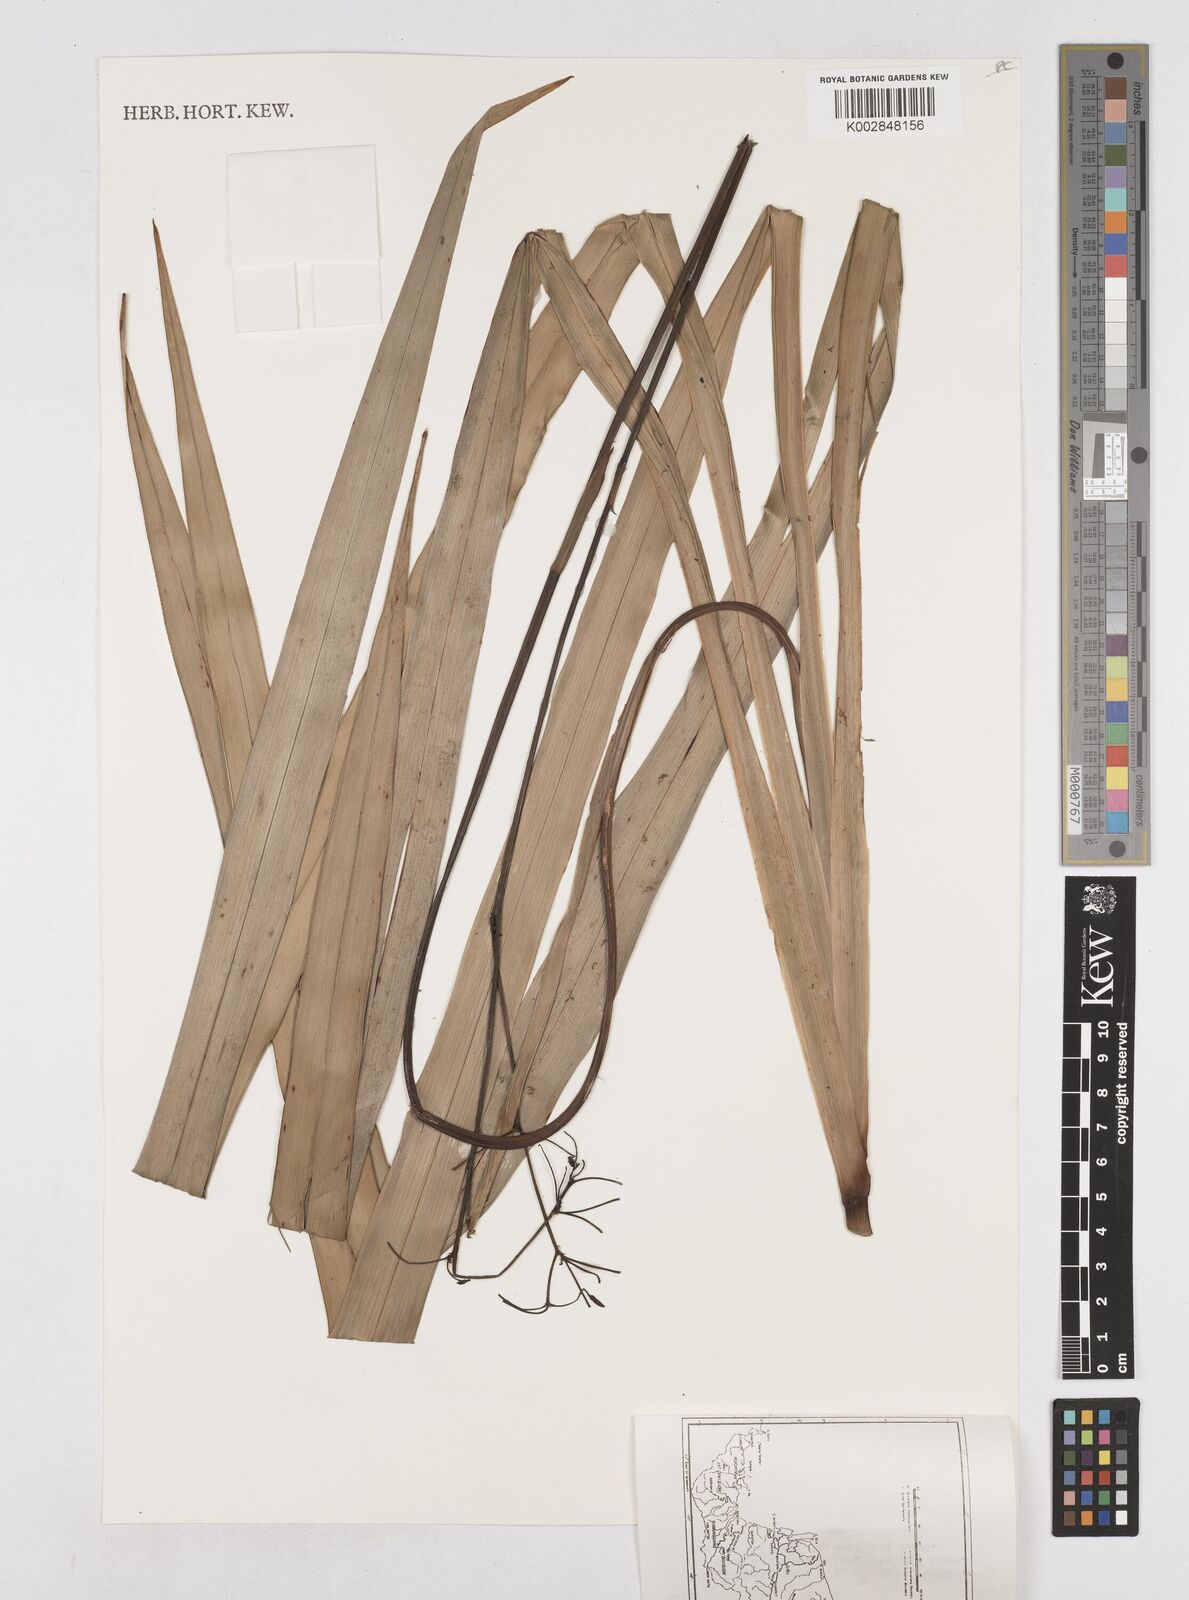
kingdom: Plantae
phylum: Tracheophyta
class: Liliopsida
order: Asparagales
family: Asphodelaceae
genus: Dianella
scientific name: Dianella ensifolia
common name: New zealand lilyplant
